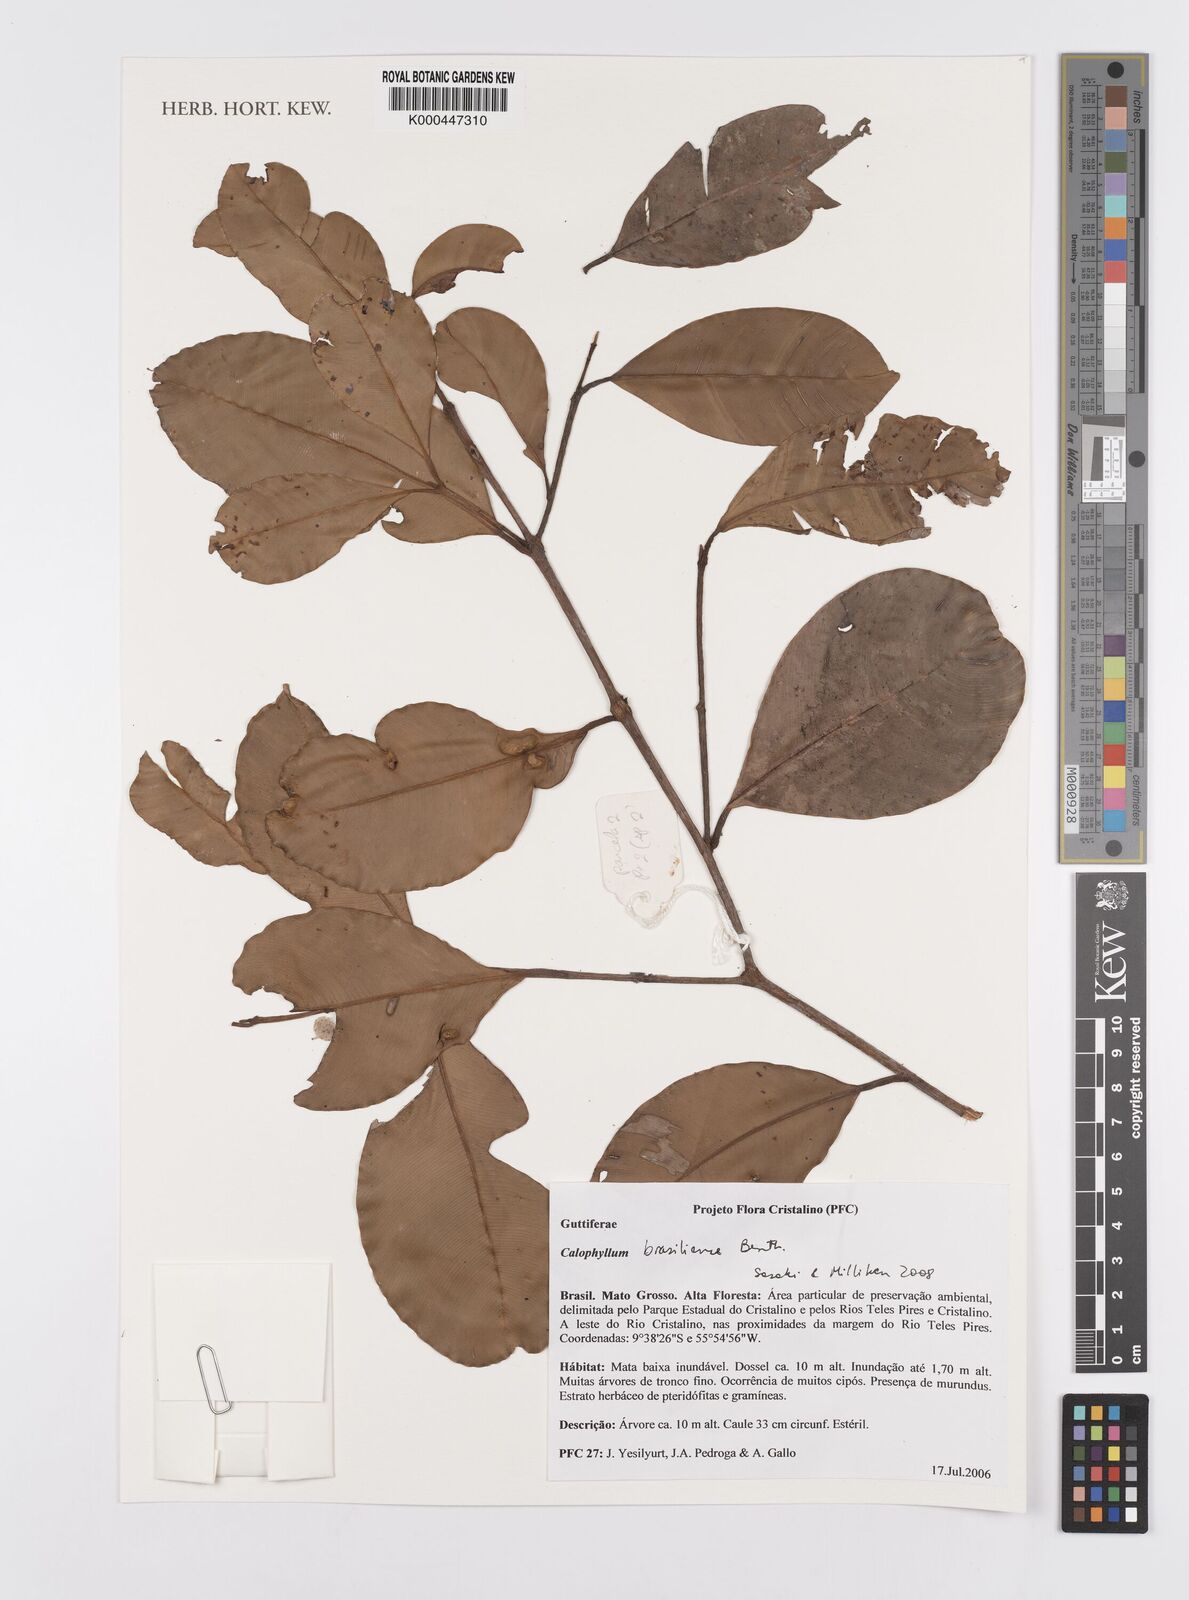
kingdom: Plantae
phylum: Tracheophyta
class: Magnoliopsida
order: Malpighiales
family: Calophyllaceae
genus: Calophyllum
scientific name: Calophyllum brasiliense
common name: Santa maria
